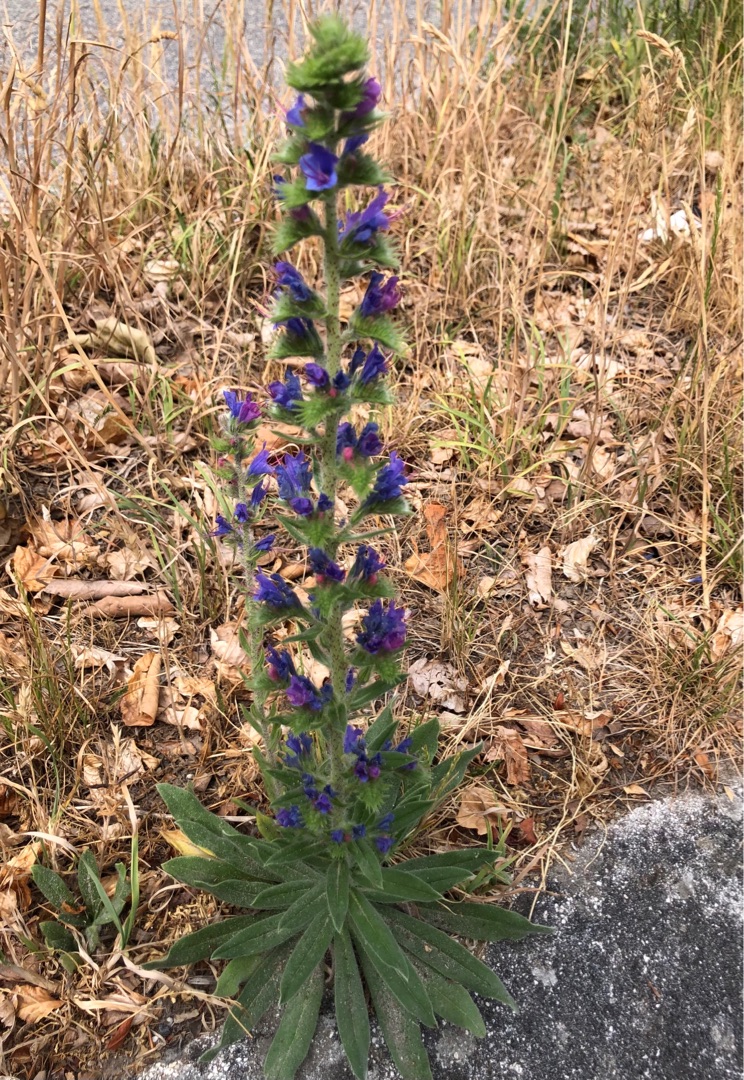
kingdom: Plantae
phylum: Tracheophyta
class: Magnoliopsida
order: Boraginales
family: Boraginaceae
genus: Echium
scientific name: Echium vulgare
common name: Slangehoved
